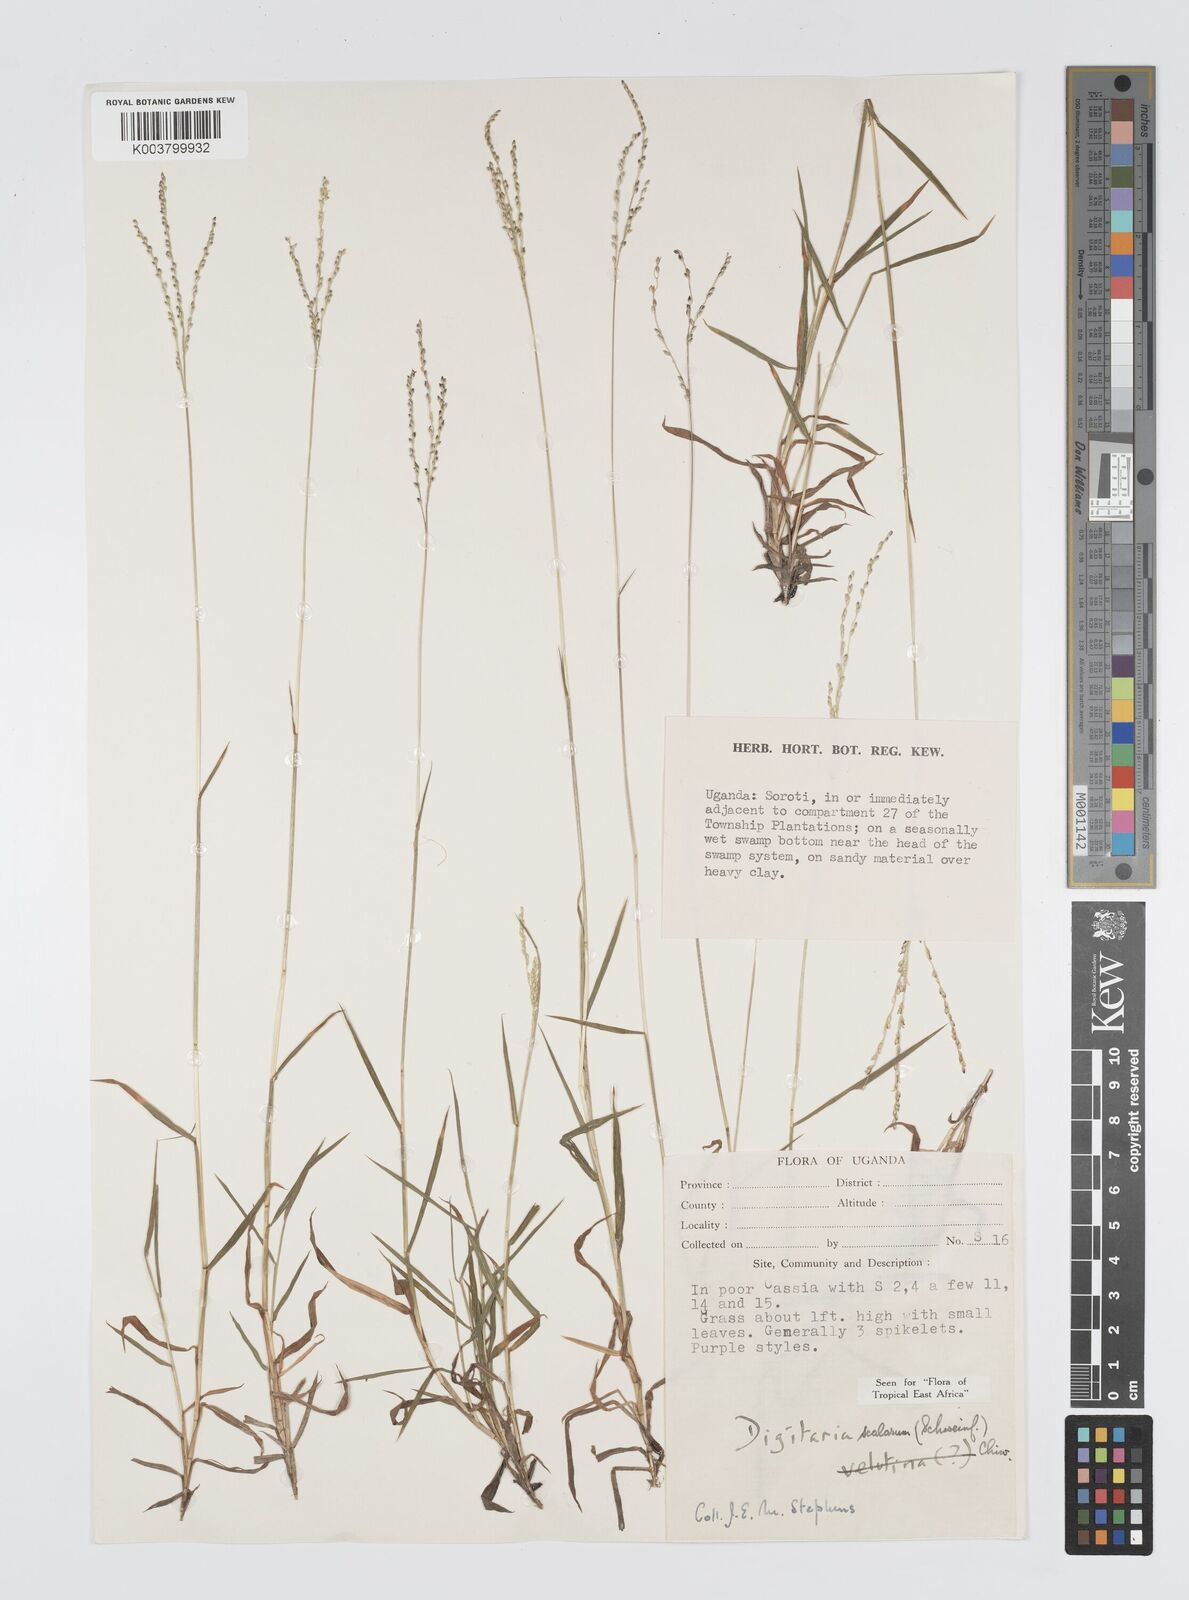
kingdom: Plantae
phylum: Tracheophyta
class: Liliopsida
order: Poales
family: Poaceae
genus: Digitaria
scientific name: Digitaria abyssinica
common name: African couchgrass
